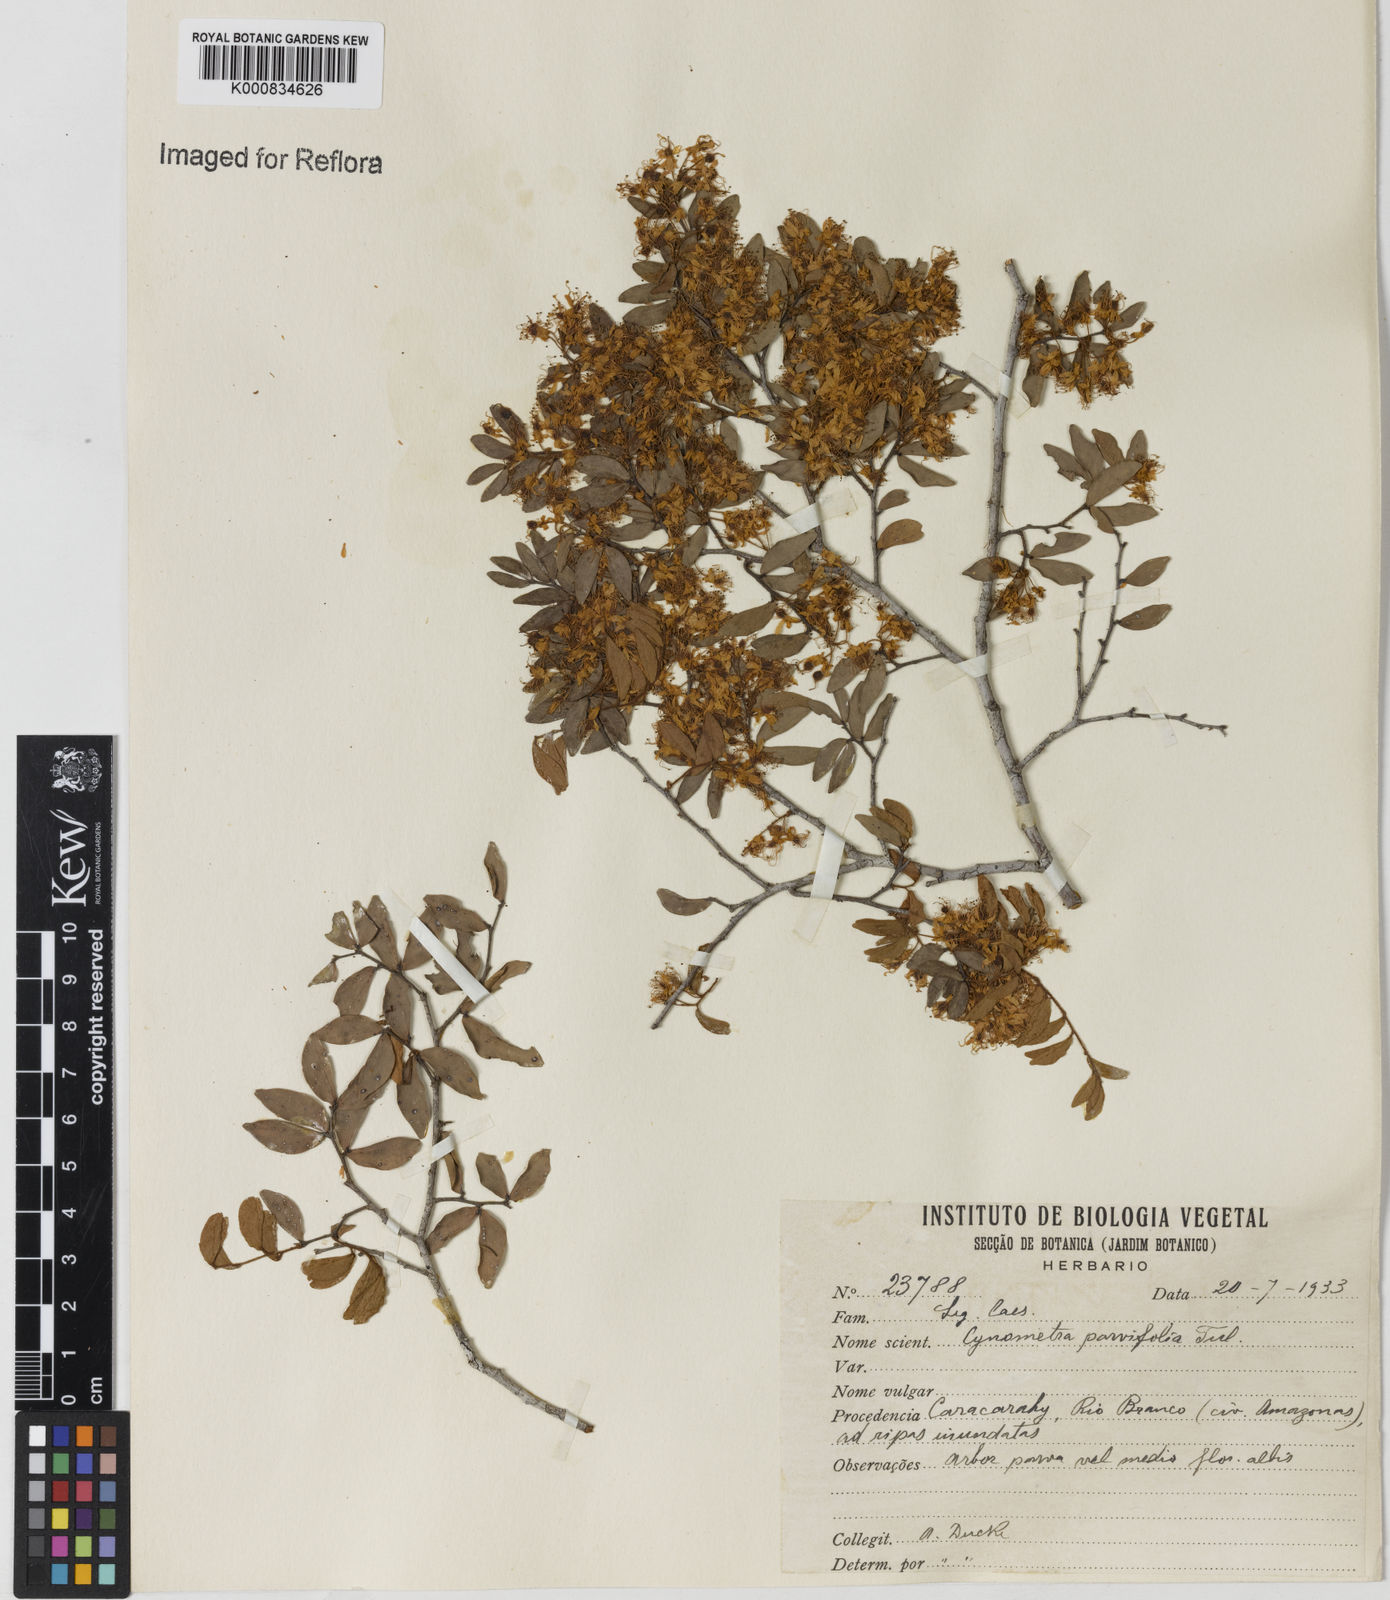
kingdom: Plantae
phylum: Tracheophyta
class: Magnoliopsida
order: Fabales
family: Fabaceae
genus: Cynometra
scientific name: Cynometra parvifolia
